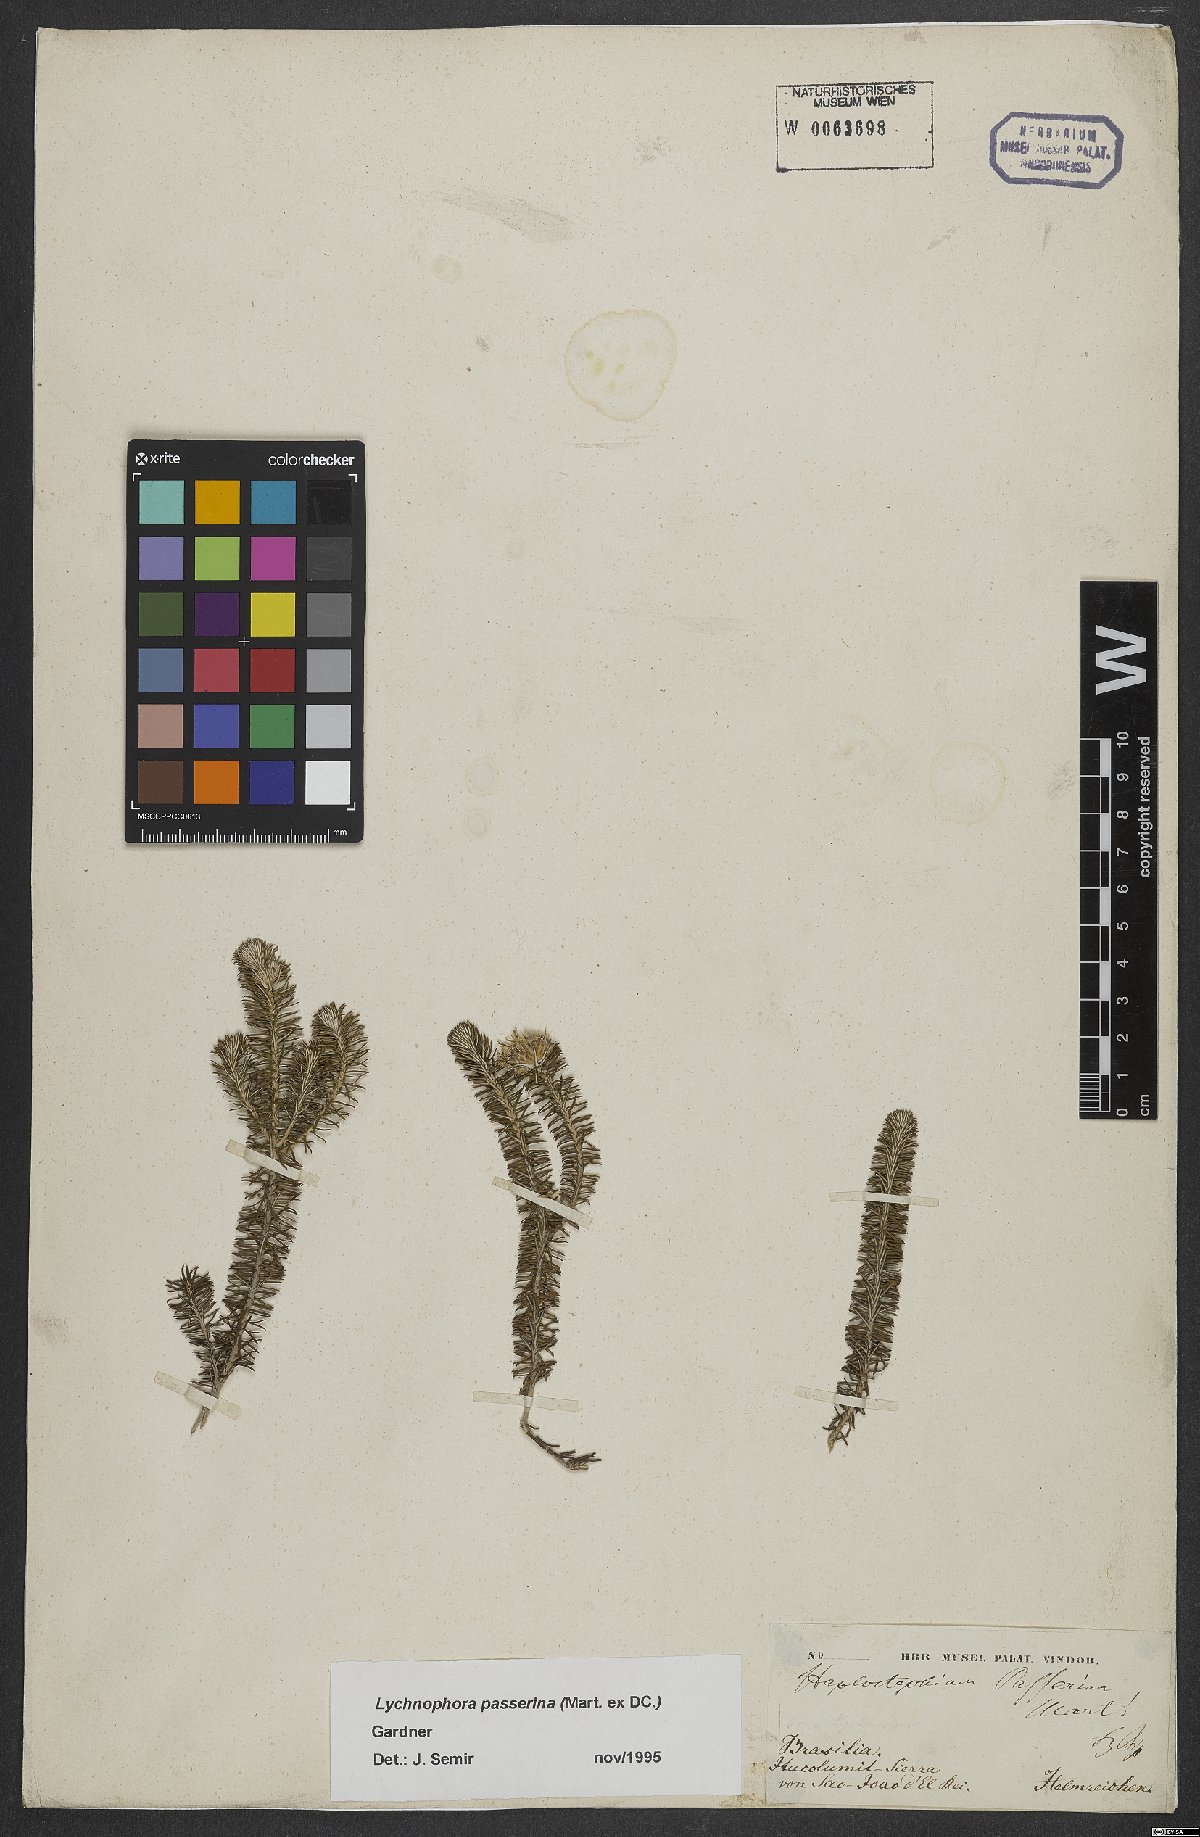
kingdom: Plantae
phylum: Tracheophyta
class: Magnoliopsida
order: Asterales
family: Asteraceae
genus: Lychnophora
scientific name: Lychnophora passerina
